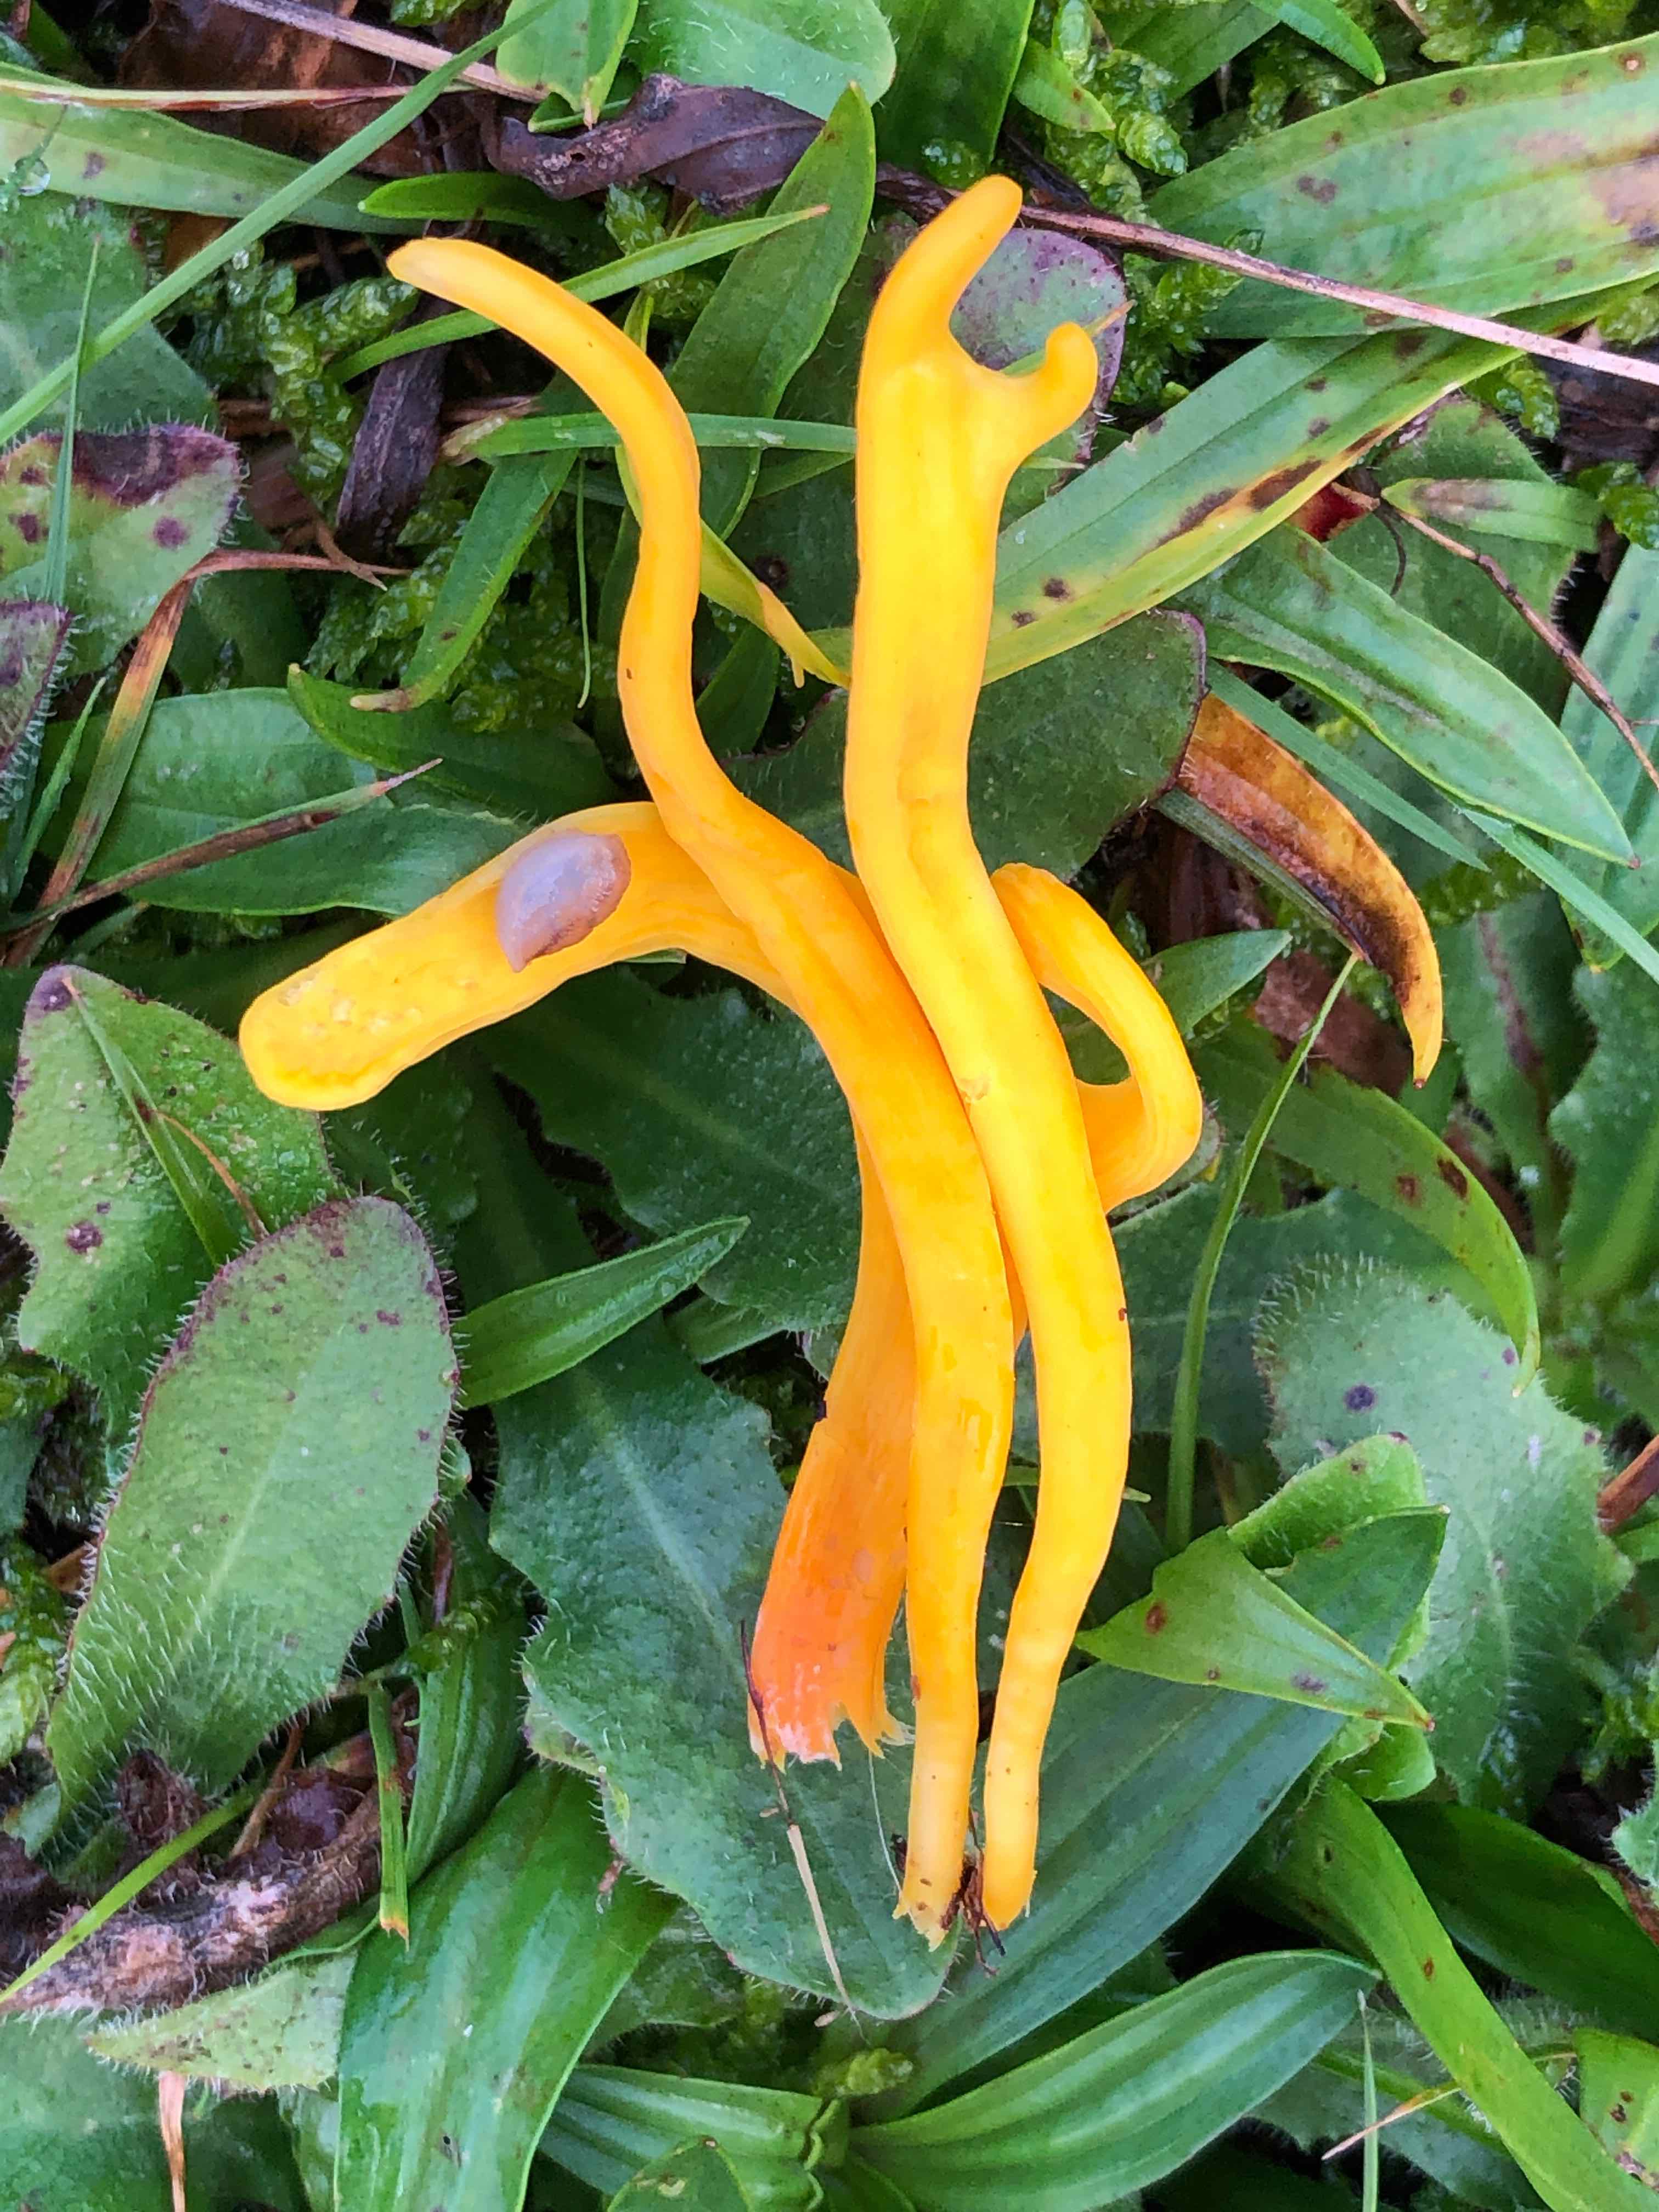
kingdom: Fungi
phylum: Basidiomycota
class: Agaricomycetes
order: Agaricales
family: Clavariaceae
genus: Clavulinopsis
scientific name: Clavulinopsis helvola
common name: orangegul køllesvamp
